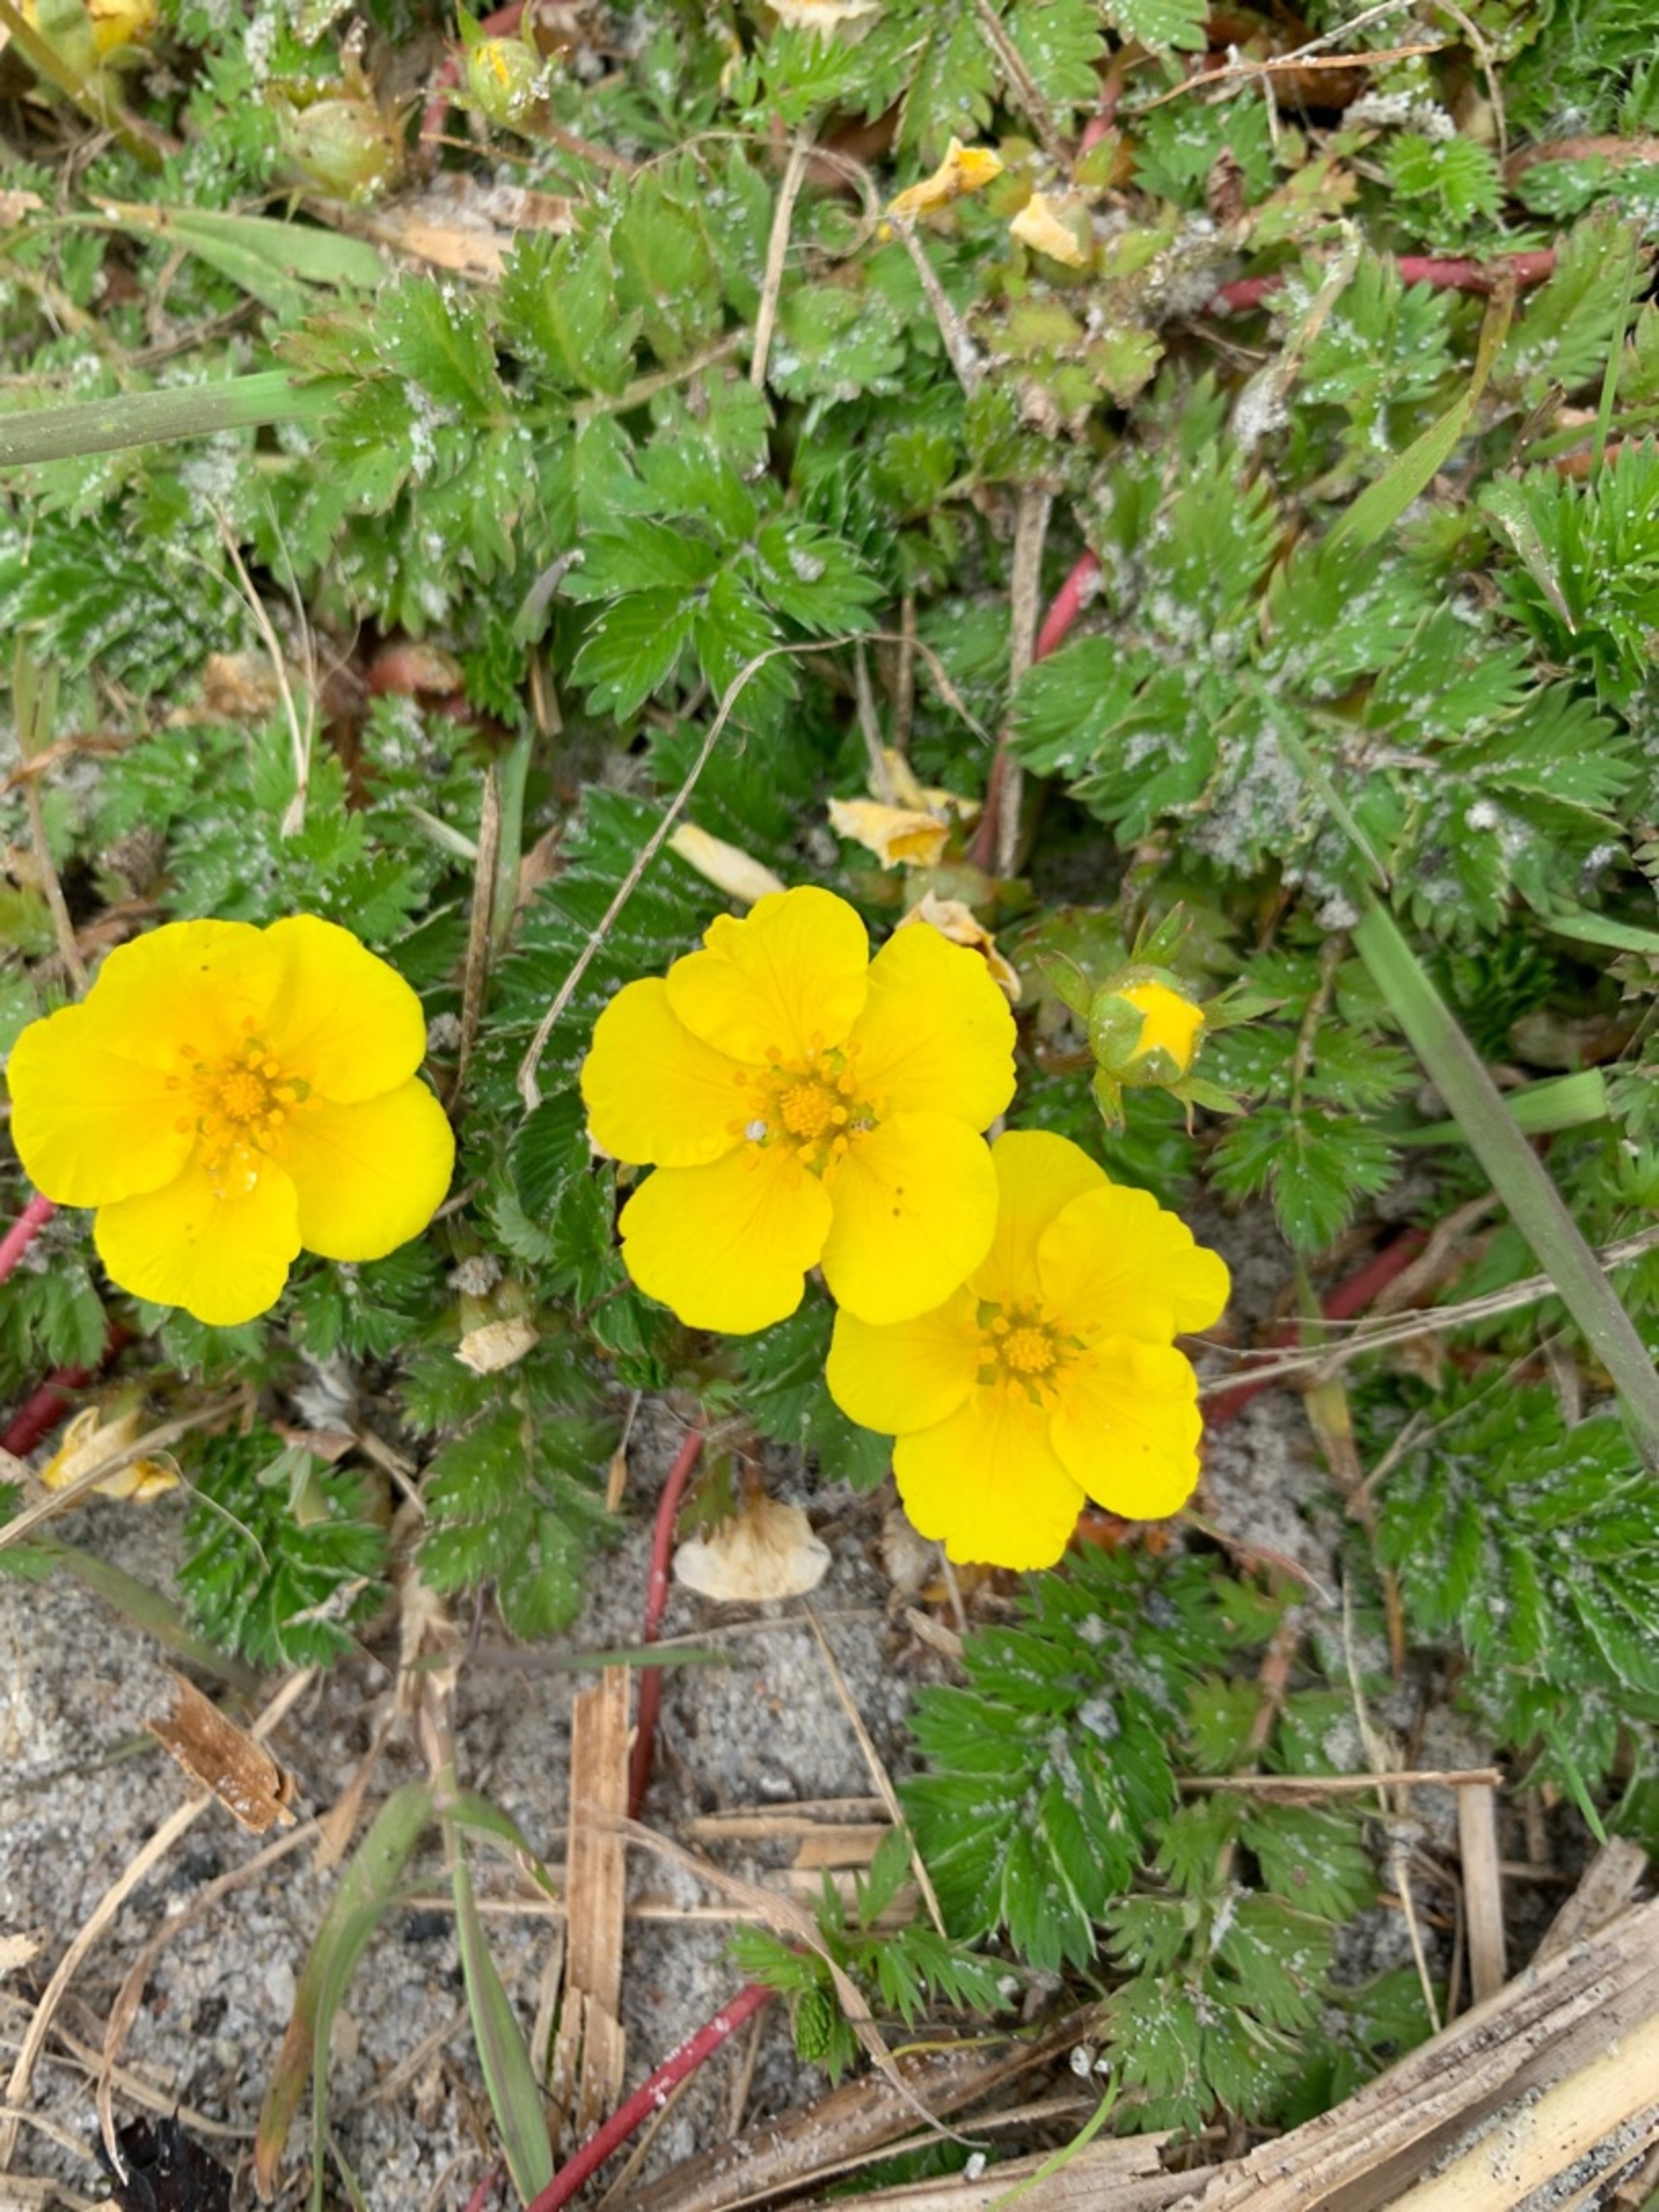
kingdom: Plantae
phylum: Tracheophyta
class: Magnoliopsida
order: Rosales
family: Rosaceae
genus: Argentina
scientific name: Argentina anserina
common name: Gåsepotentil
